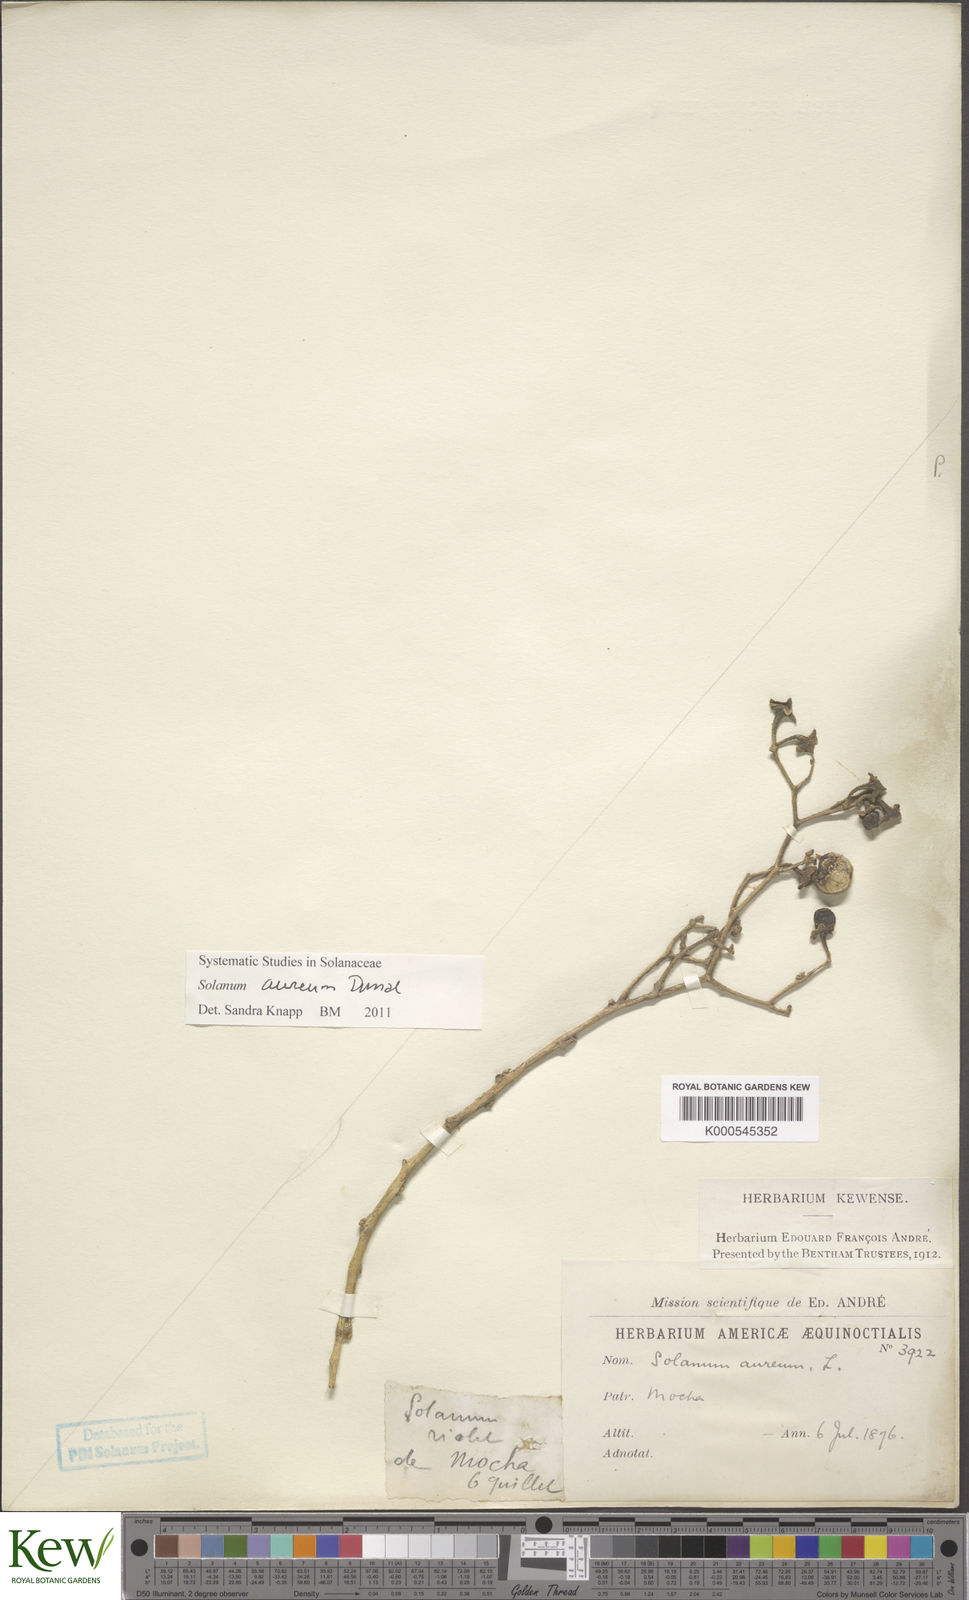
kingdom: Plantae
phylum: Tracheophyta
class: Magnoliopsida
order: Solanales
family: Solanaceae
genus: Solanum
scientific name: Solanum aureum
